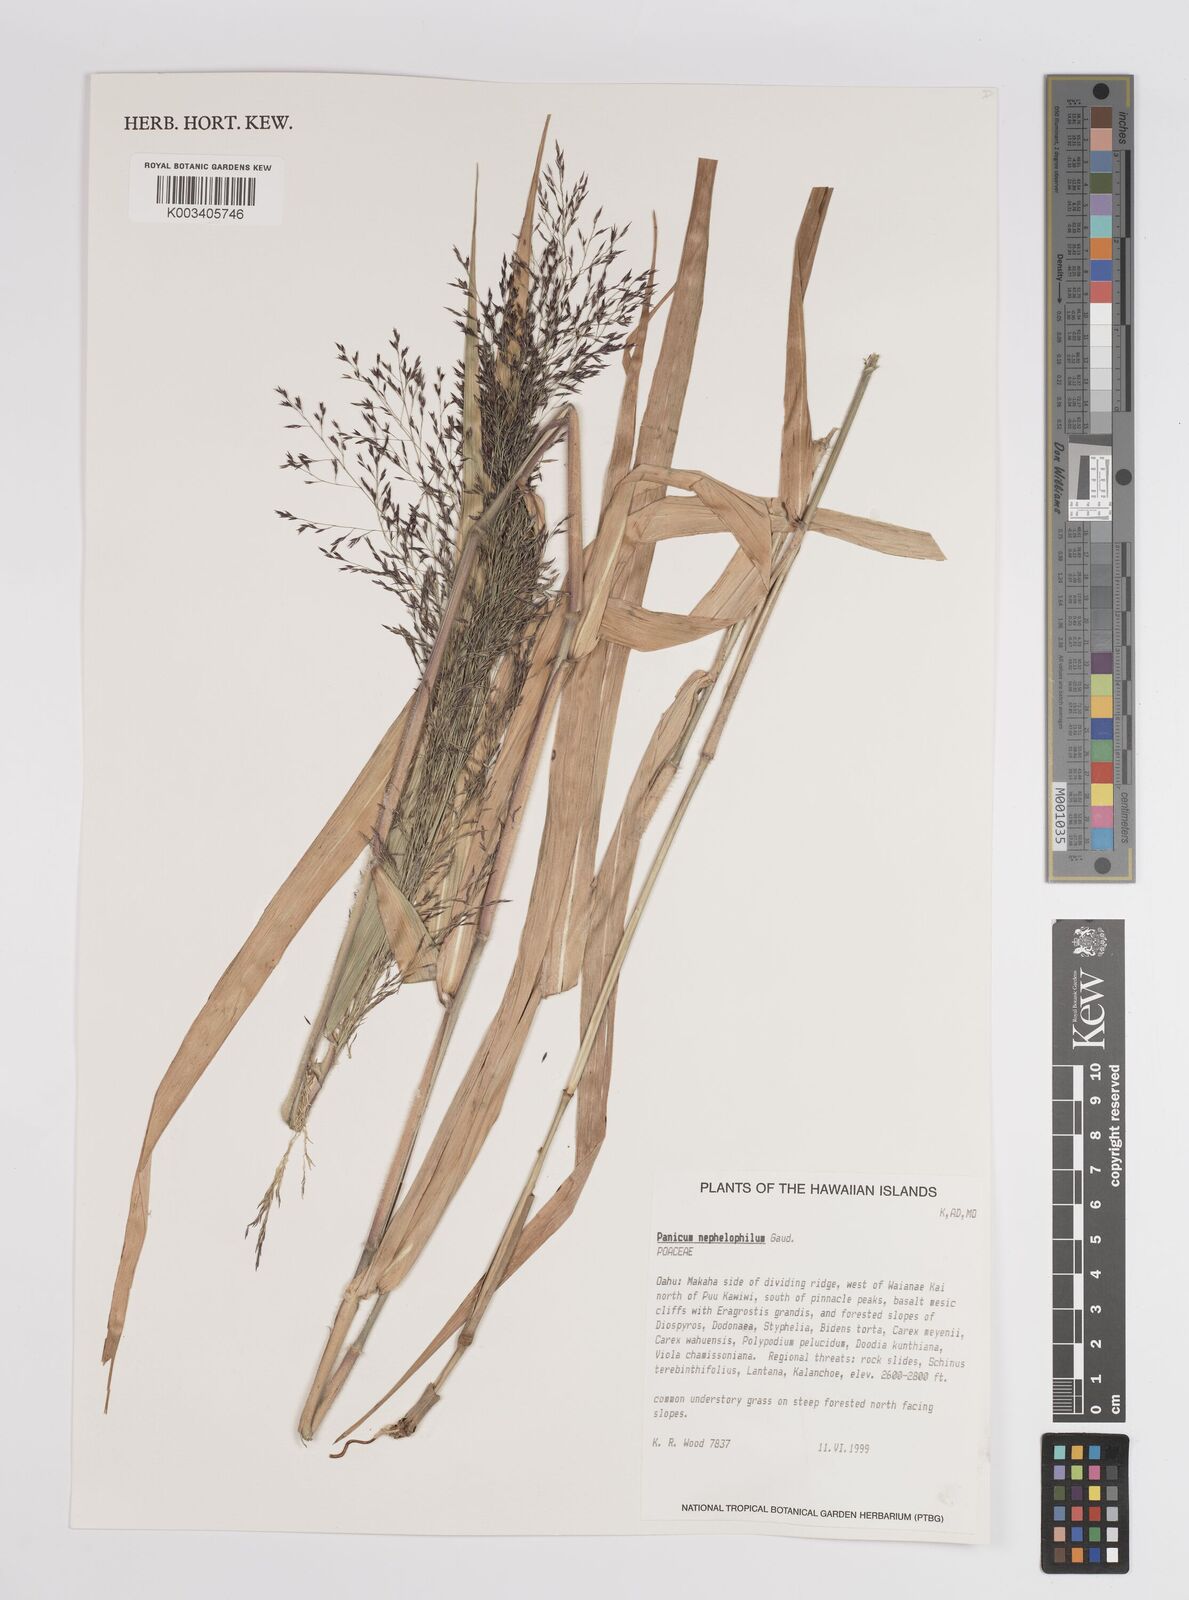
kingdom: Plantae
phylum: Tracheophyta
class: Liliopsida
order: Poales
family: Poaceae
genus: Panicum
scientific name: Panicum nephelophilum
